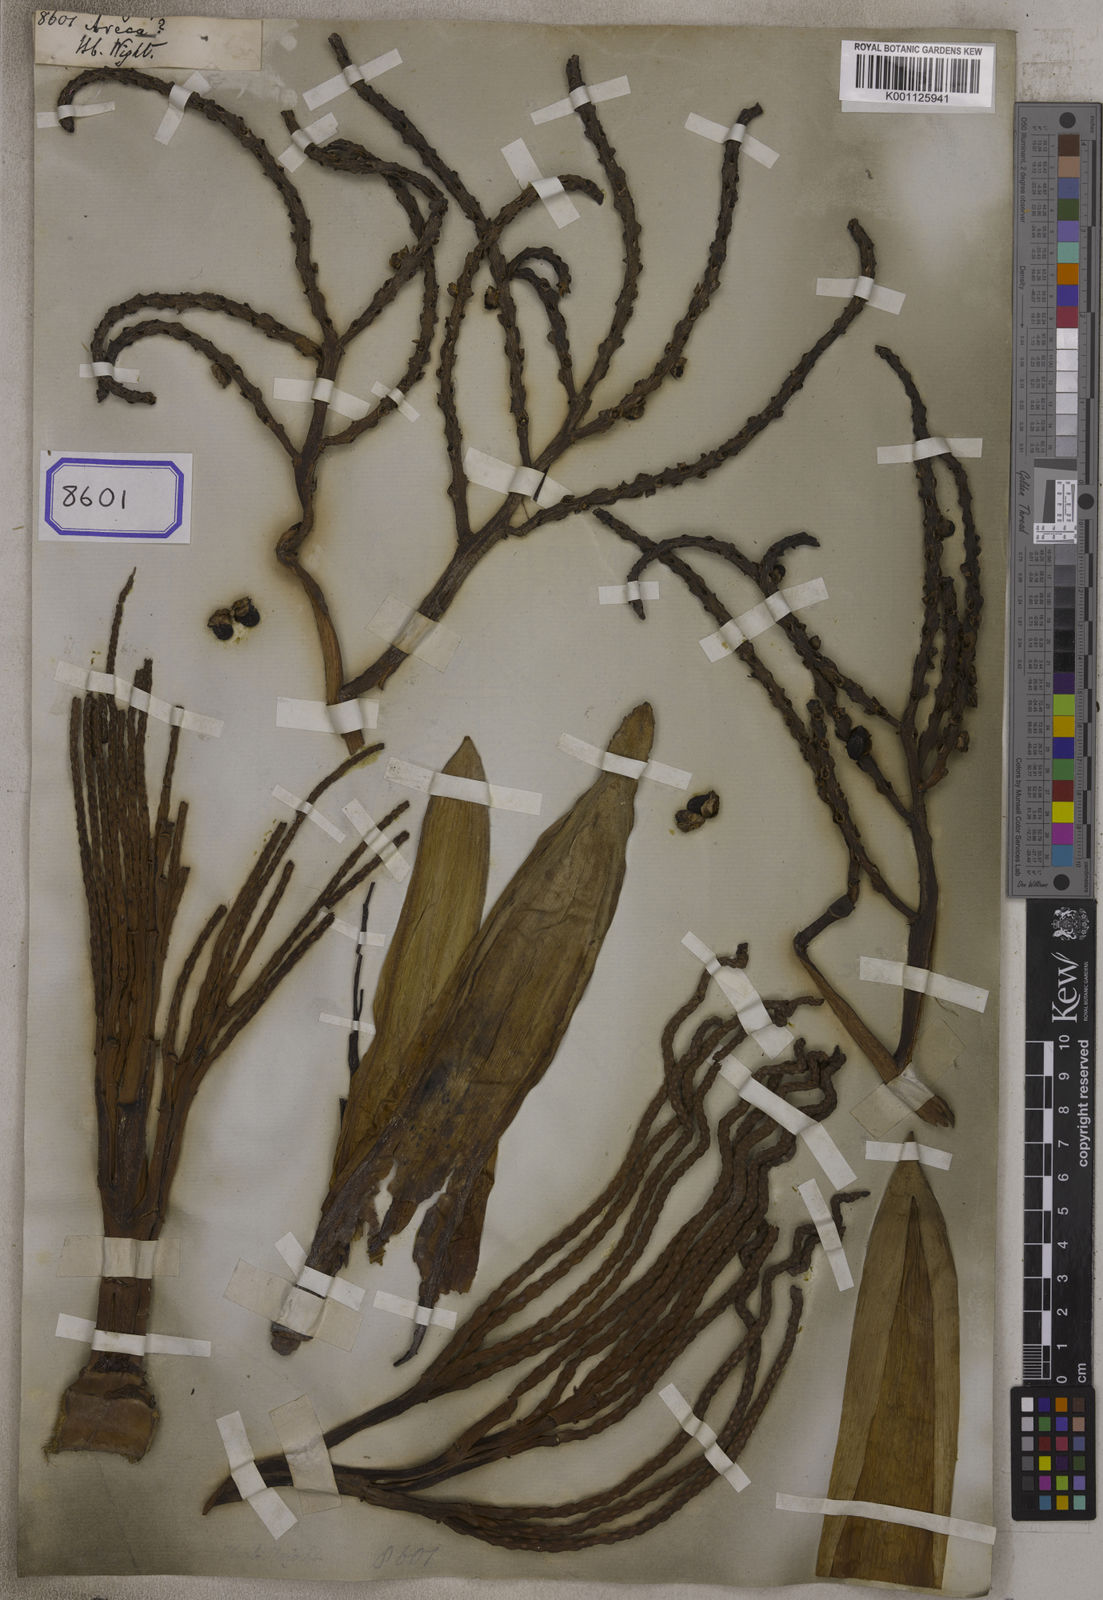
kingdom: Plantae
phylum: Tracheophyta
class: Liliopsida
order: Arecales
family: Arecaceae
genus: Areca
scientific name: Areca
